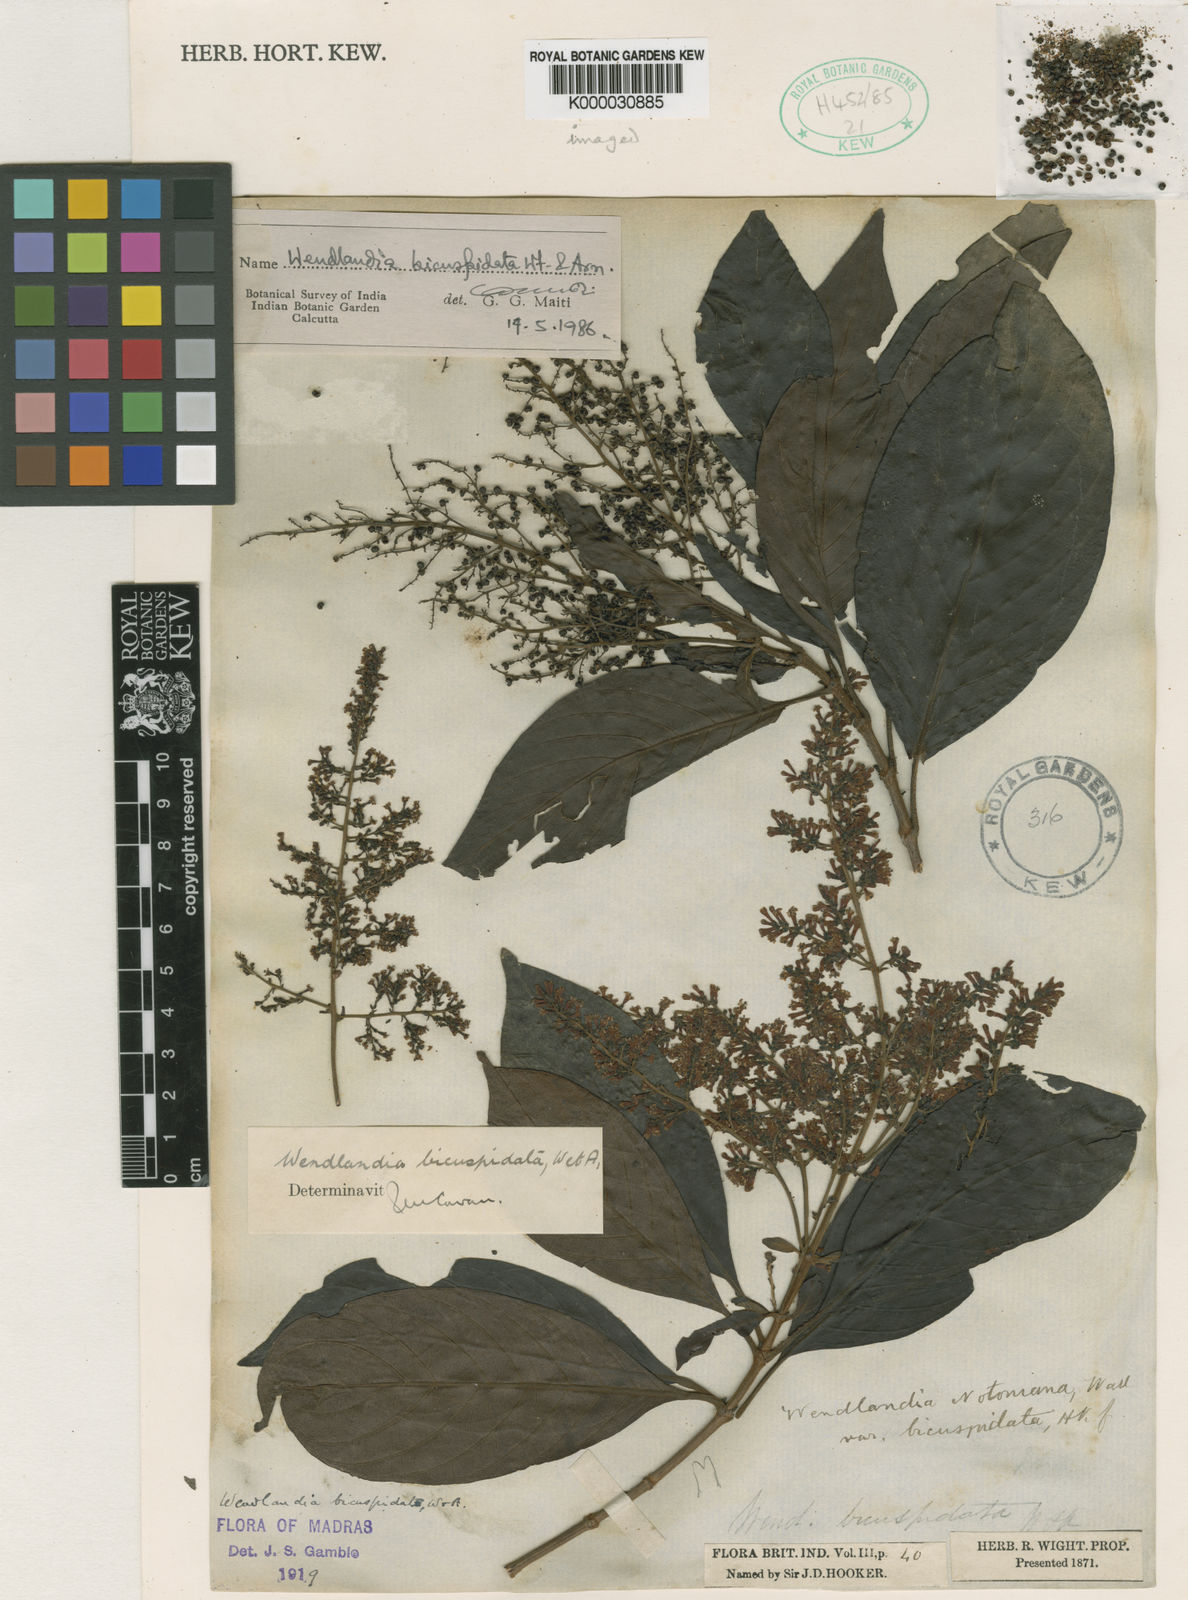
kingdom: Plantae
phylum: Tracheophyta
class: Magnoliopsida
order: Gentianales
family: Rubiaceae
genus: Wendlandia
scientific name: Wendlandia bicuspidata
